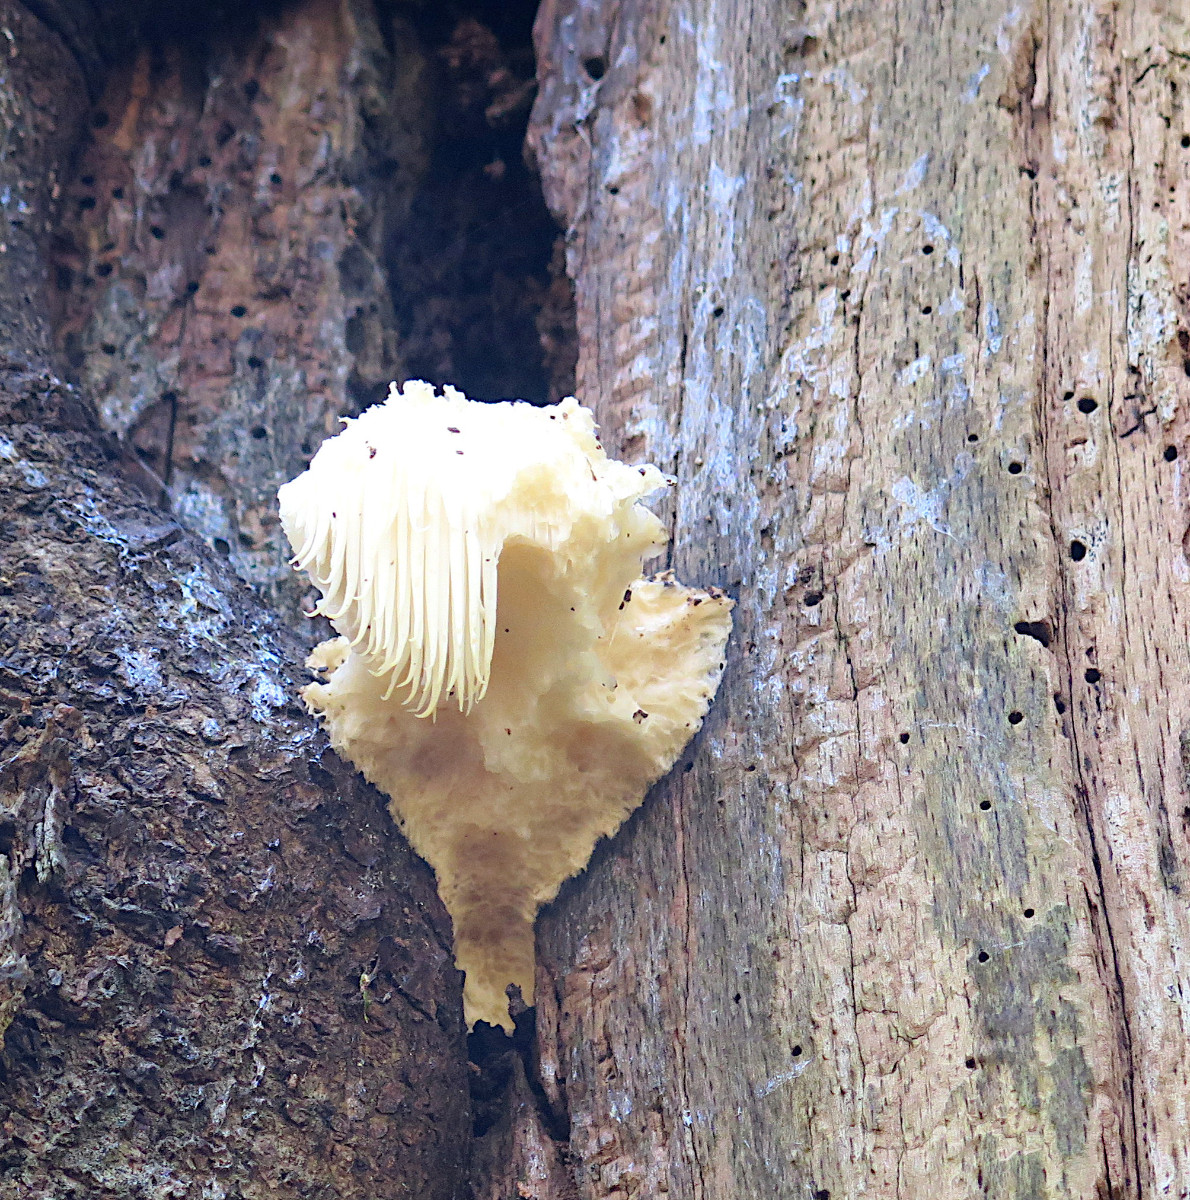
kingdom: Fungi
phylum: Basidiomycota
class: Agaricomycetes
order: Russulales
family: Hericiaceae
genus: Hericium
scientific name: Hericium erinaceus
